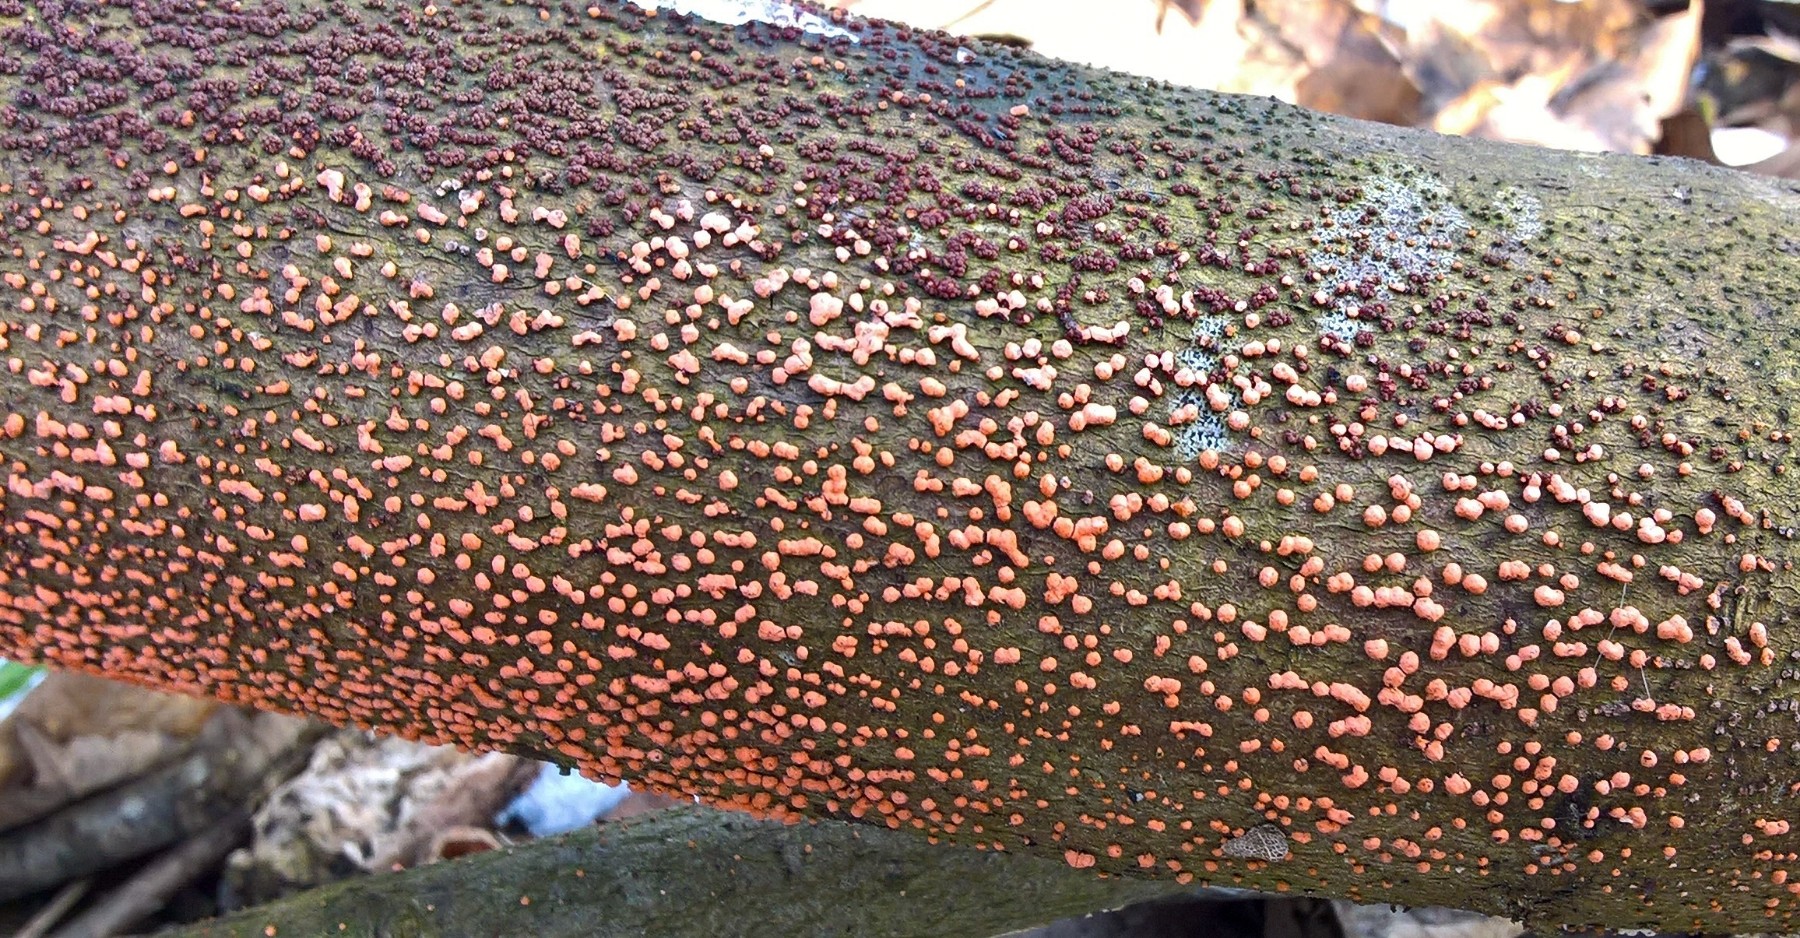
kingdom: Fungi
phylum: Ascomycota
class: Sordariomycetes
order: Hypocreales
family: Nectriaceae
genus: Nectria
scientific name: Nectria cinnabarina
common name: almindelig cinnobersvamp
